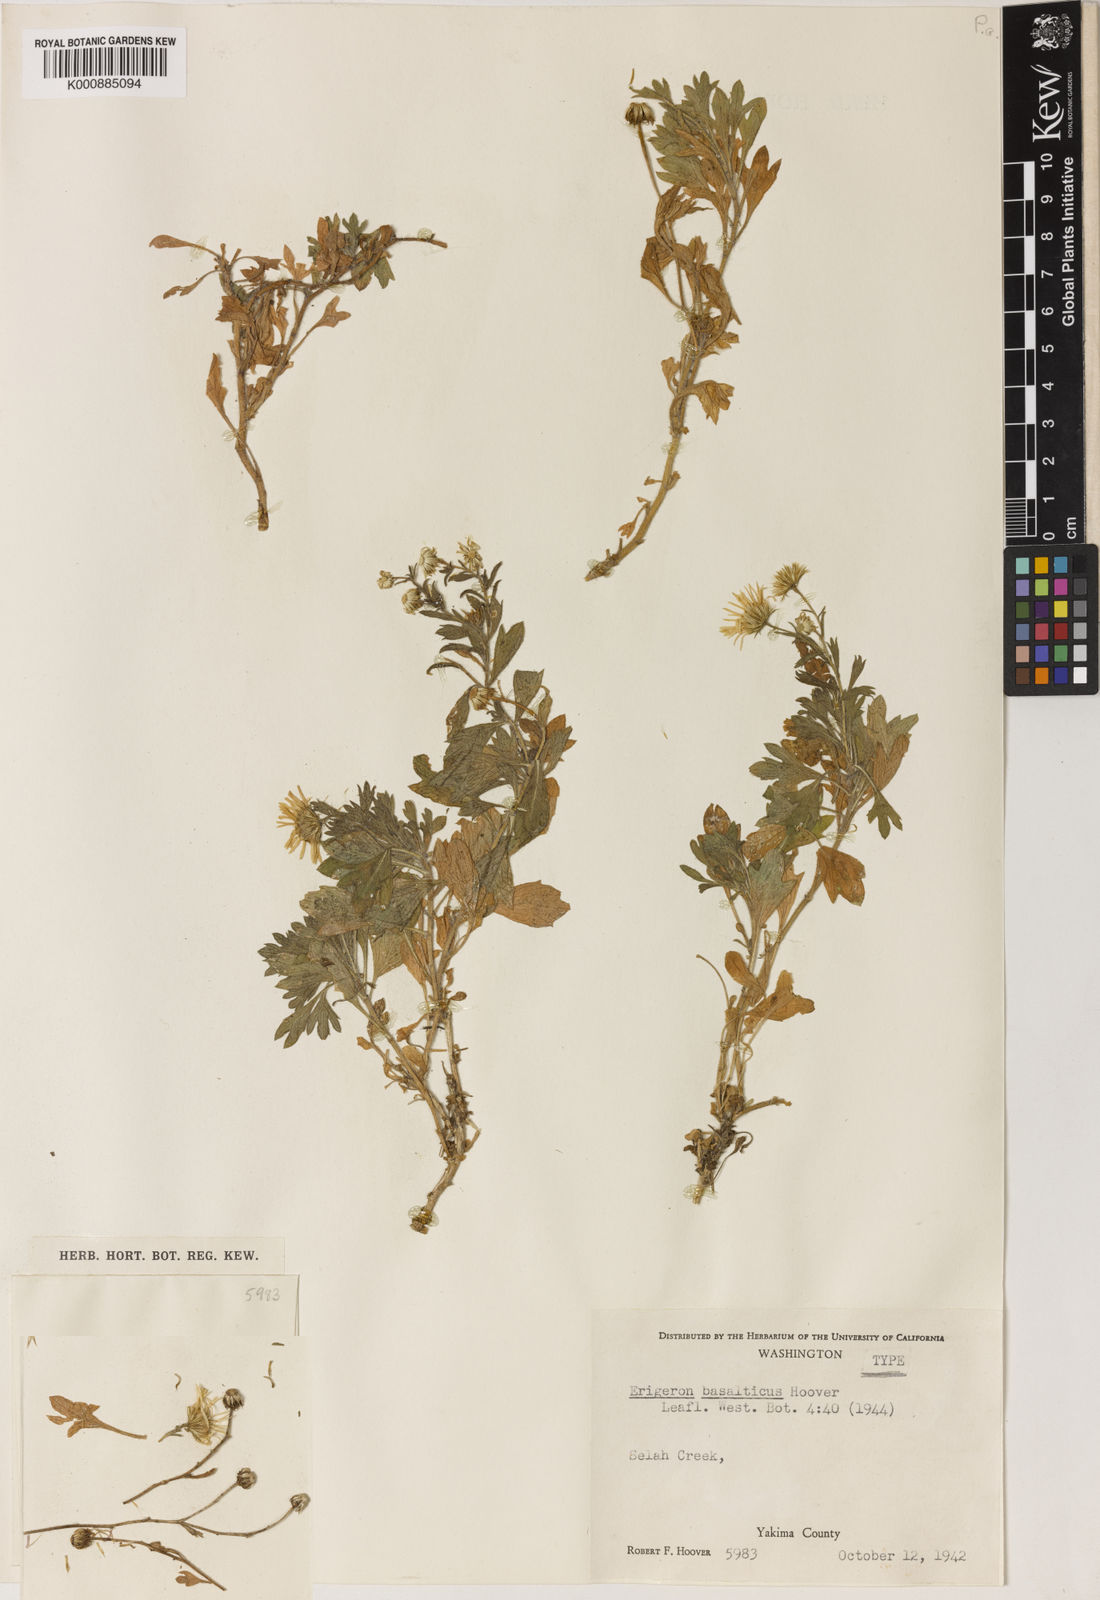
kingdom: Plantae
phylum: Tracheophyta
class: Magnoliopsida
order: Asterales
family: Asteraceae
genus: Erigeron
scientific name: Erigeron
